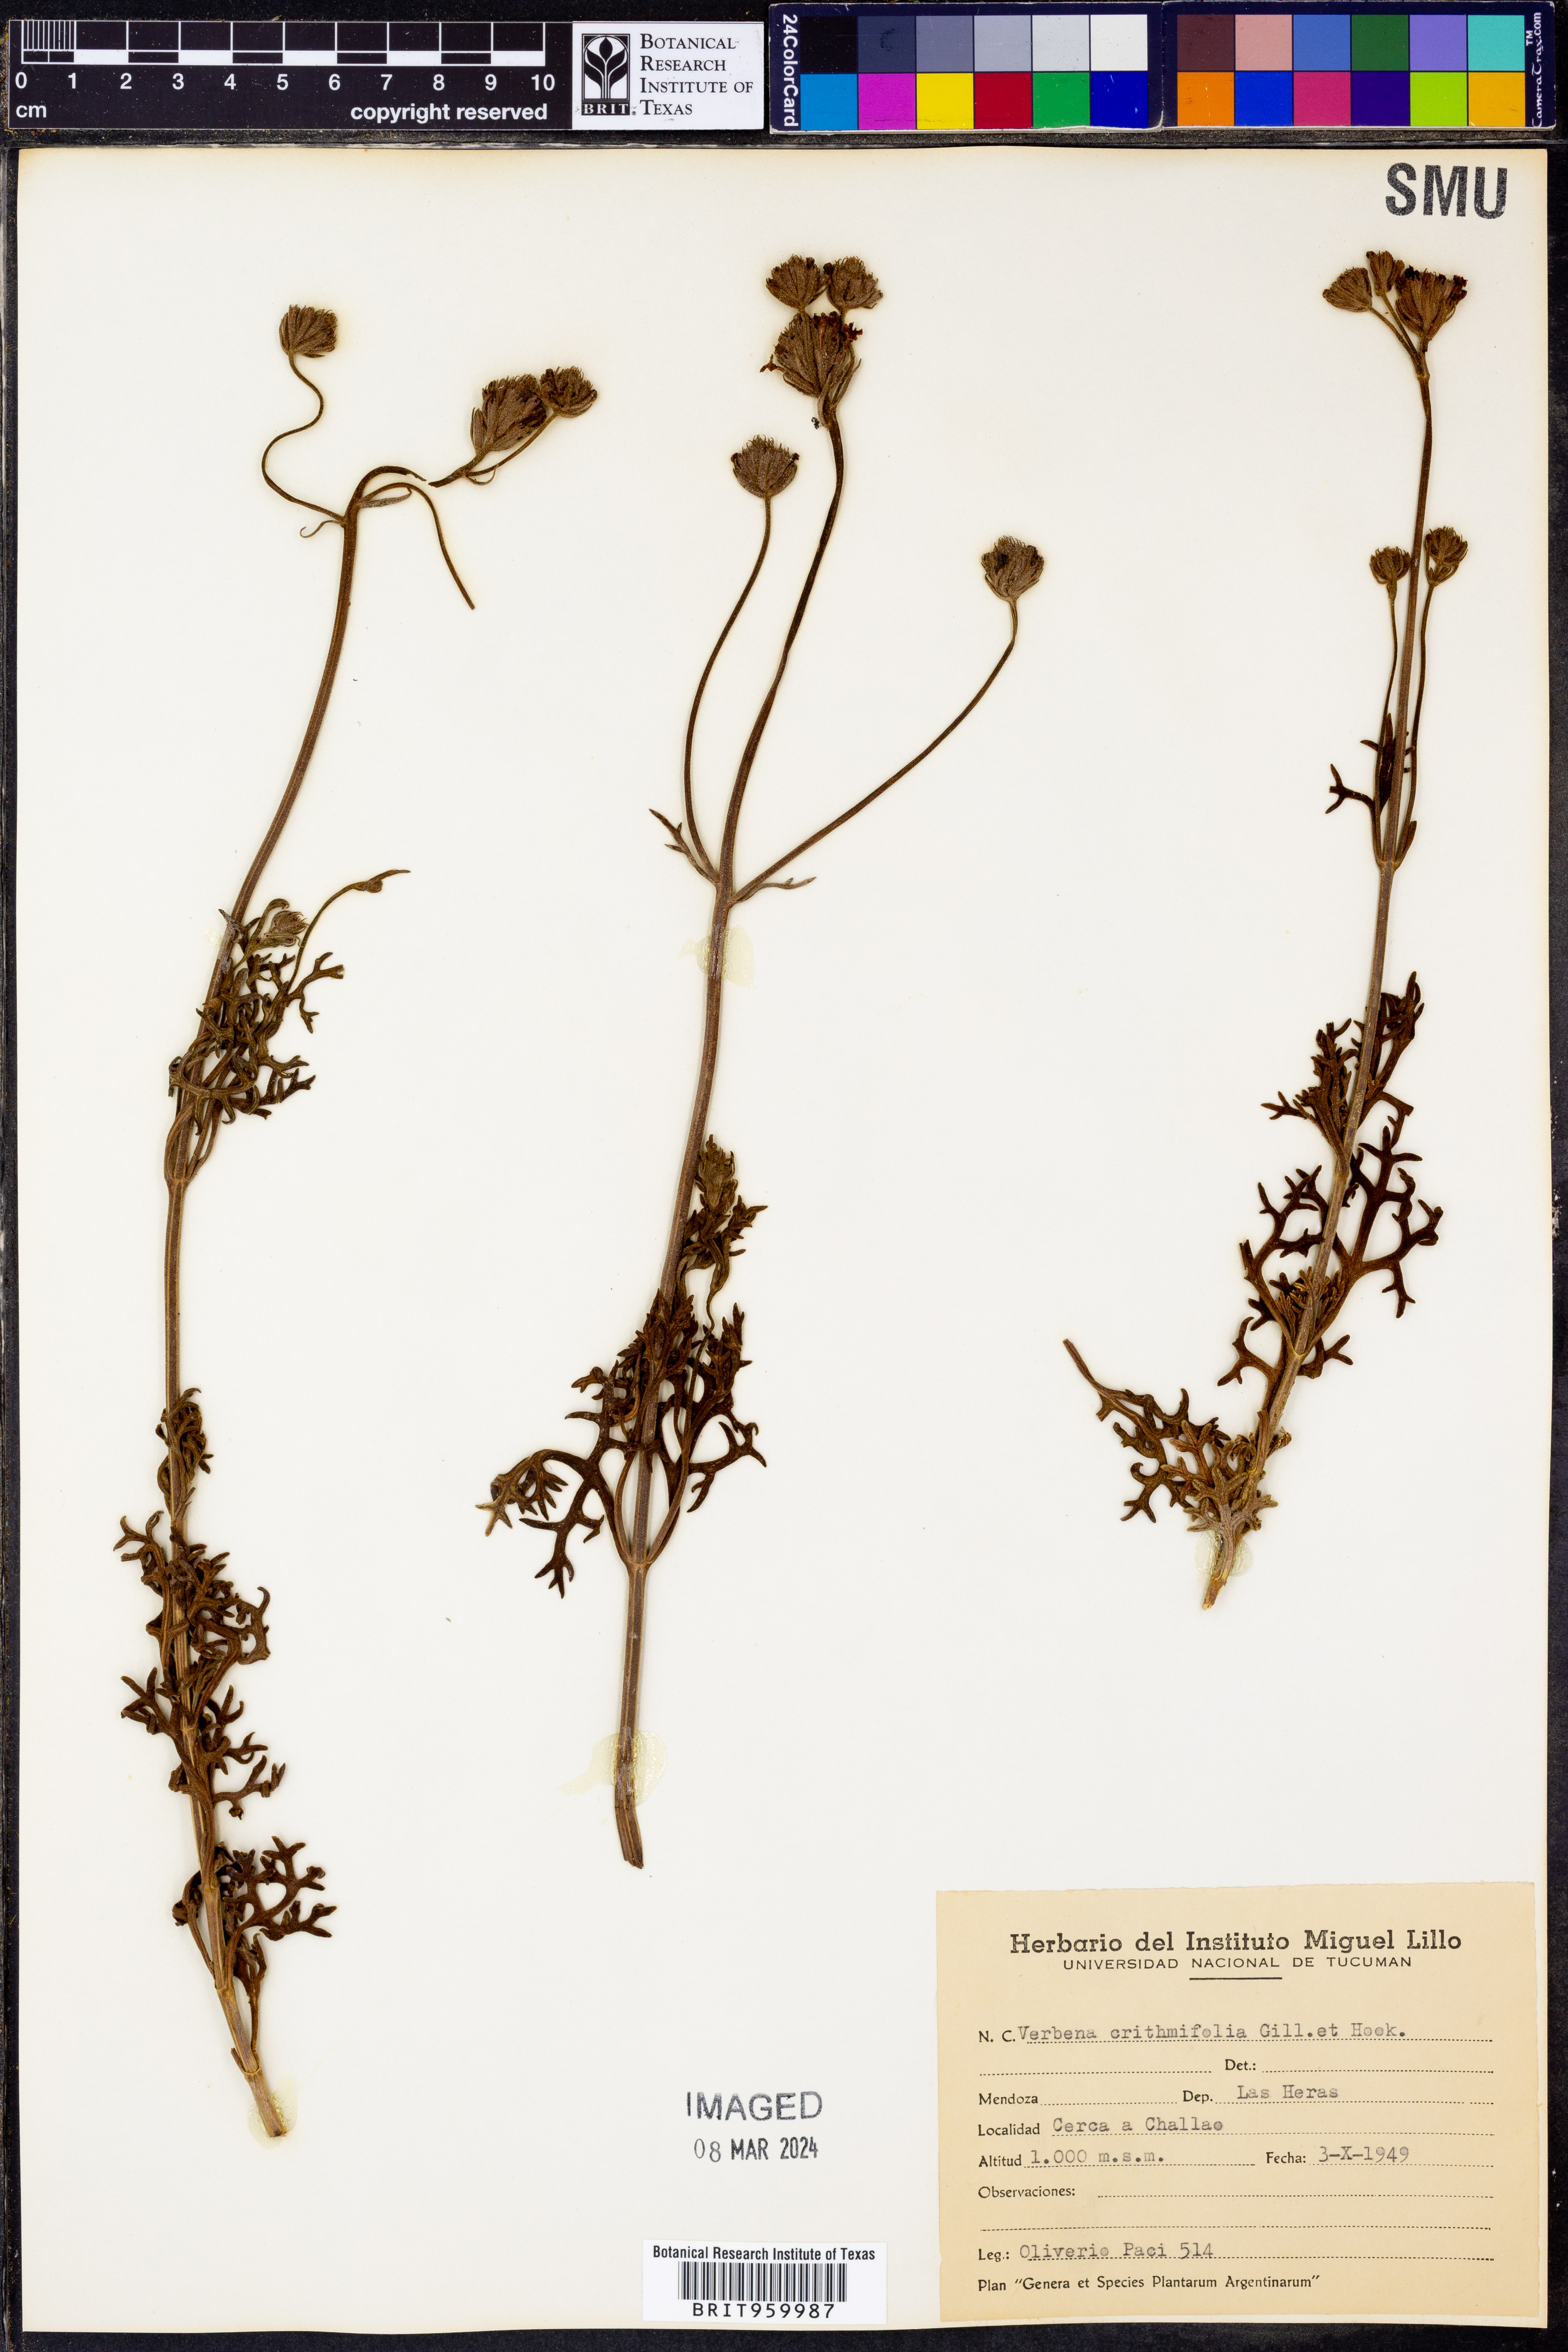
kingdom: Plantae
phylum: Tracheophyta
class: Magnoliopsida
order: Lamiales
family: Verbenaceae
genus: Verbena
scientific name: Verbena
